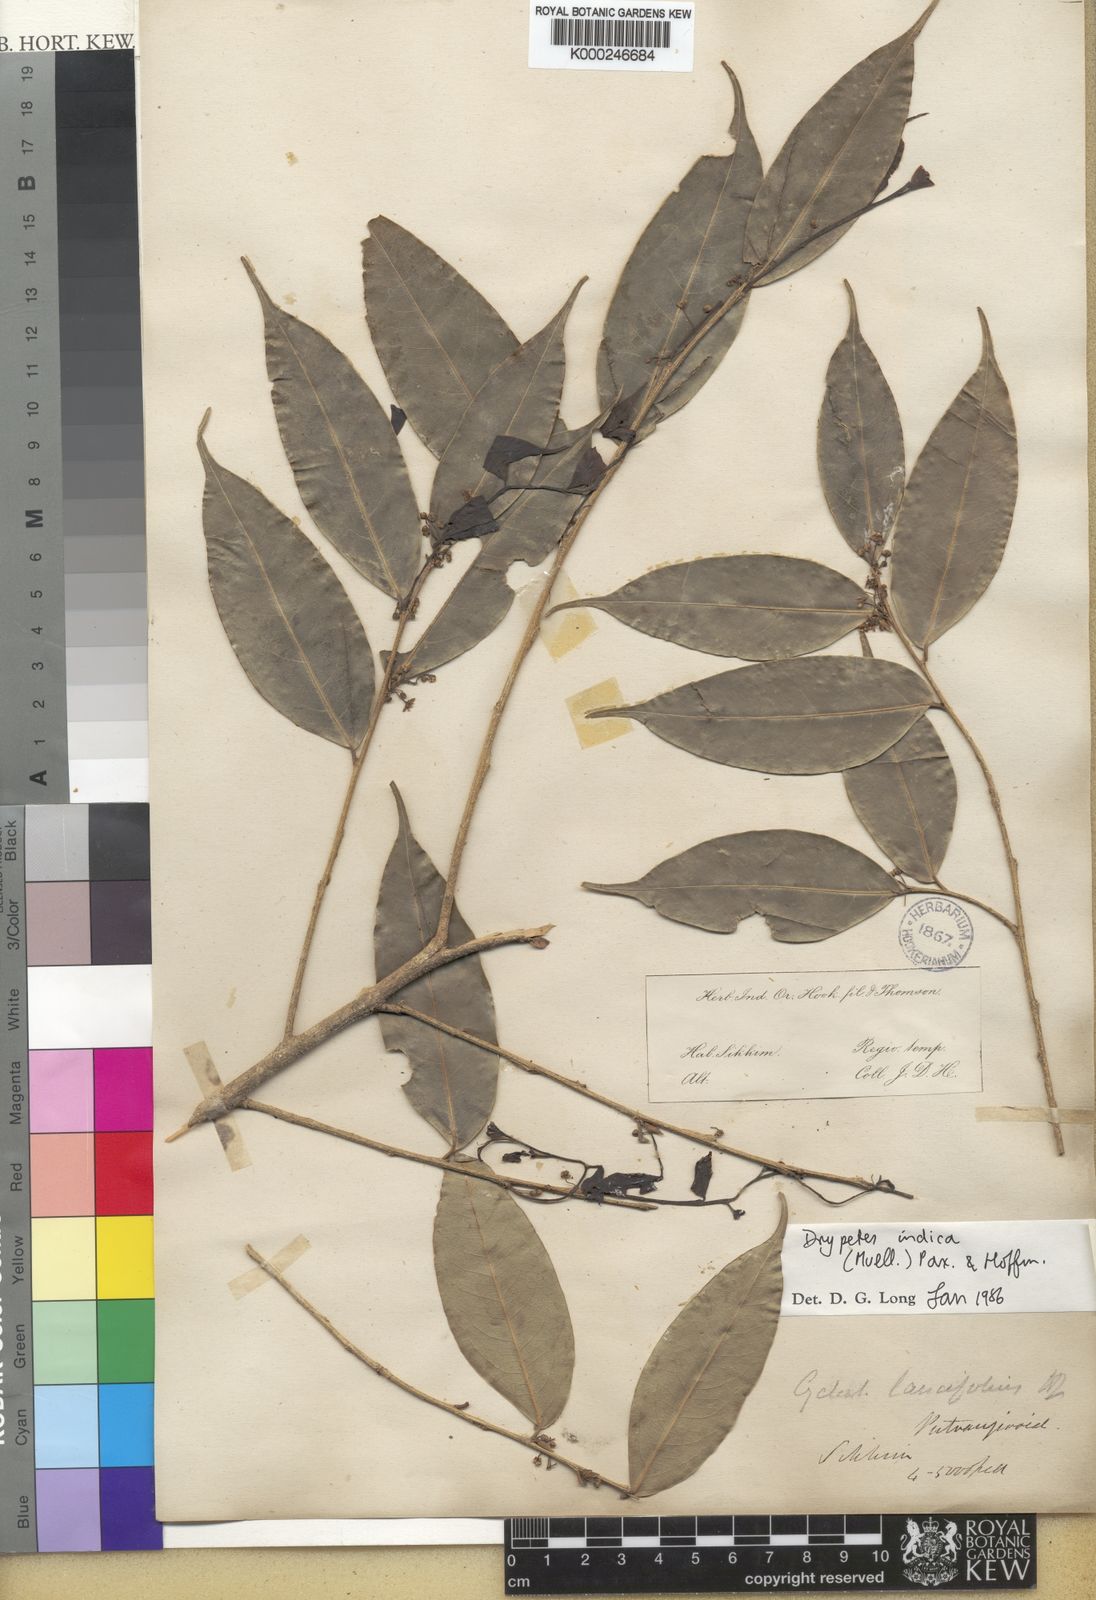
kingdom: Plantae
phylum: Tracheophyta
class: Magnoliopsida
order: Malpighiales
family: Putranjivaceae
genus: Drypetes
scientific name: Drypetes
